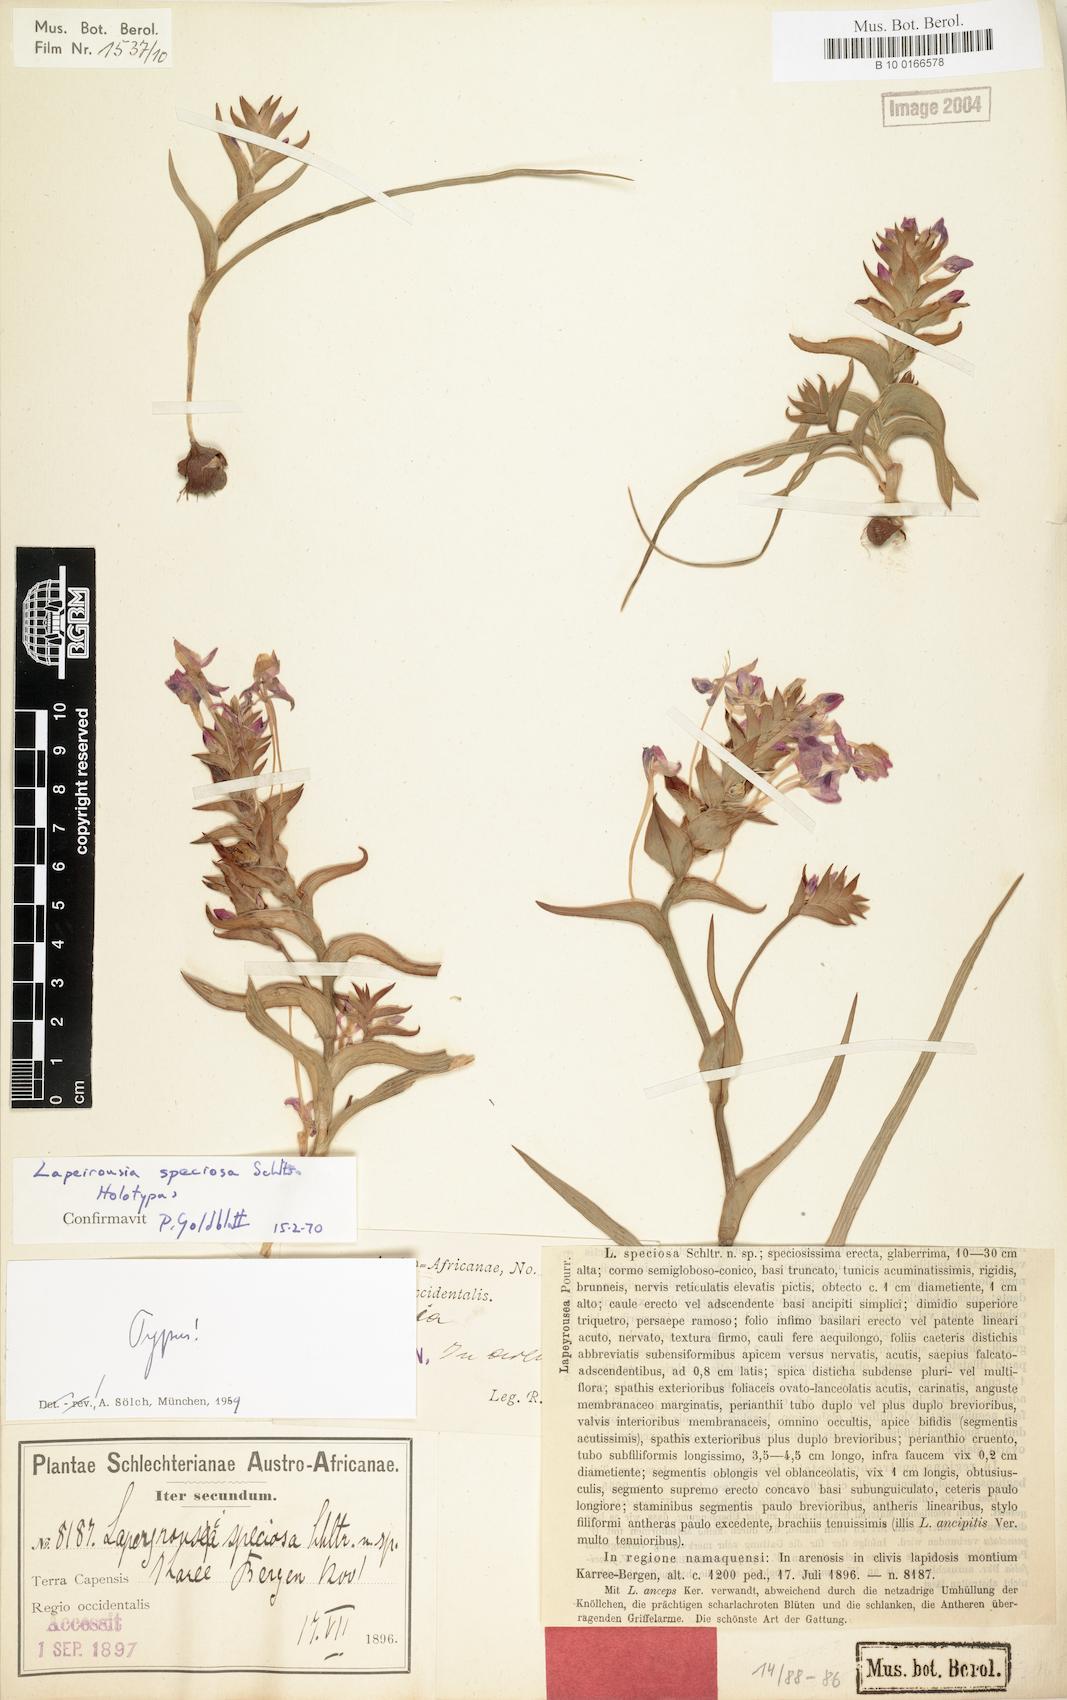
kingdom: Plantae
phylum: Tracheophyta
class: Liliopsida
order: Asparagales
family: Iridaceae
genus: Lapeirousia
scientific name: Lapeirousia silenoides
